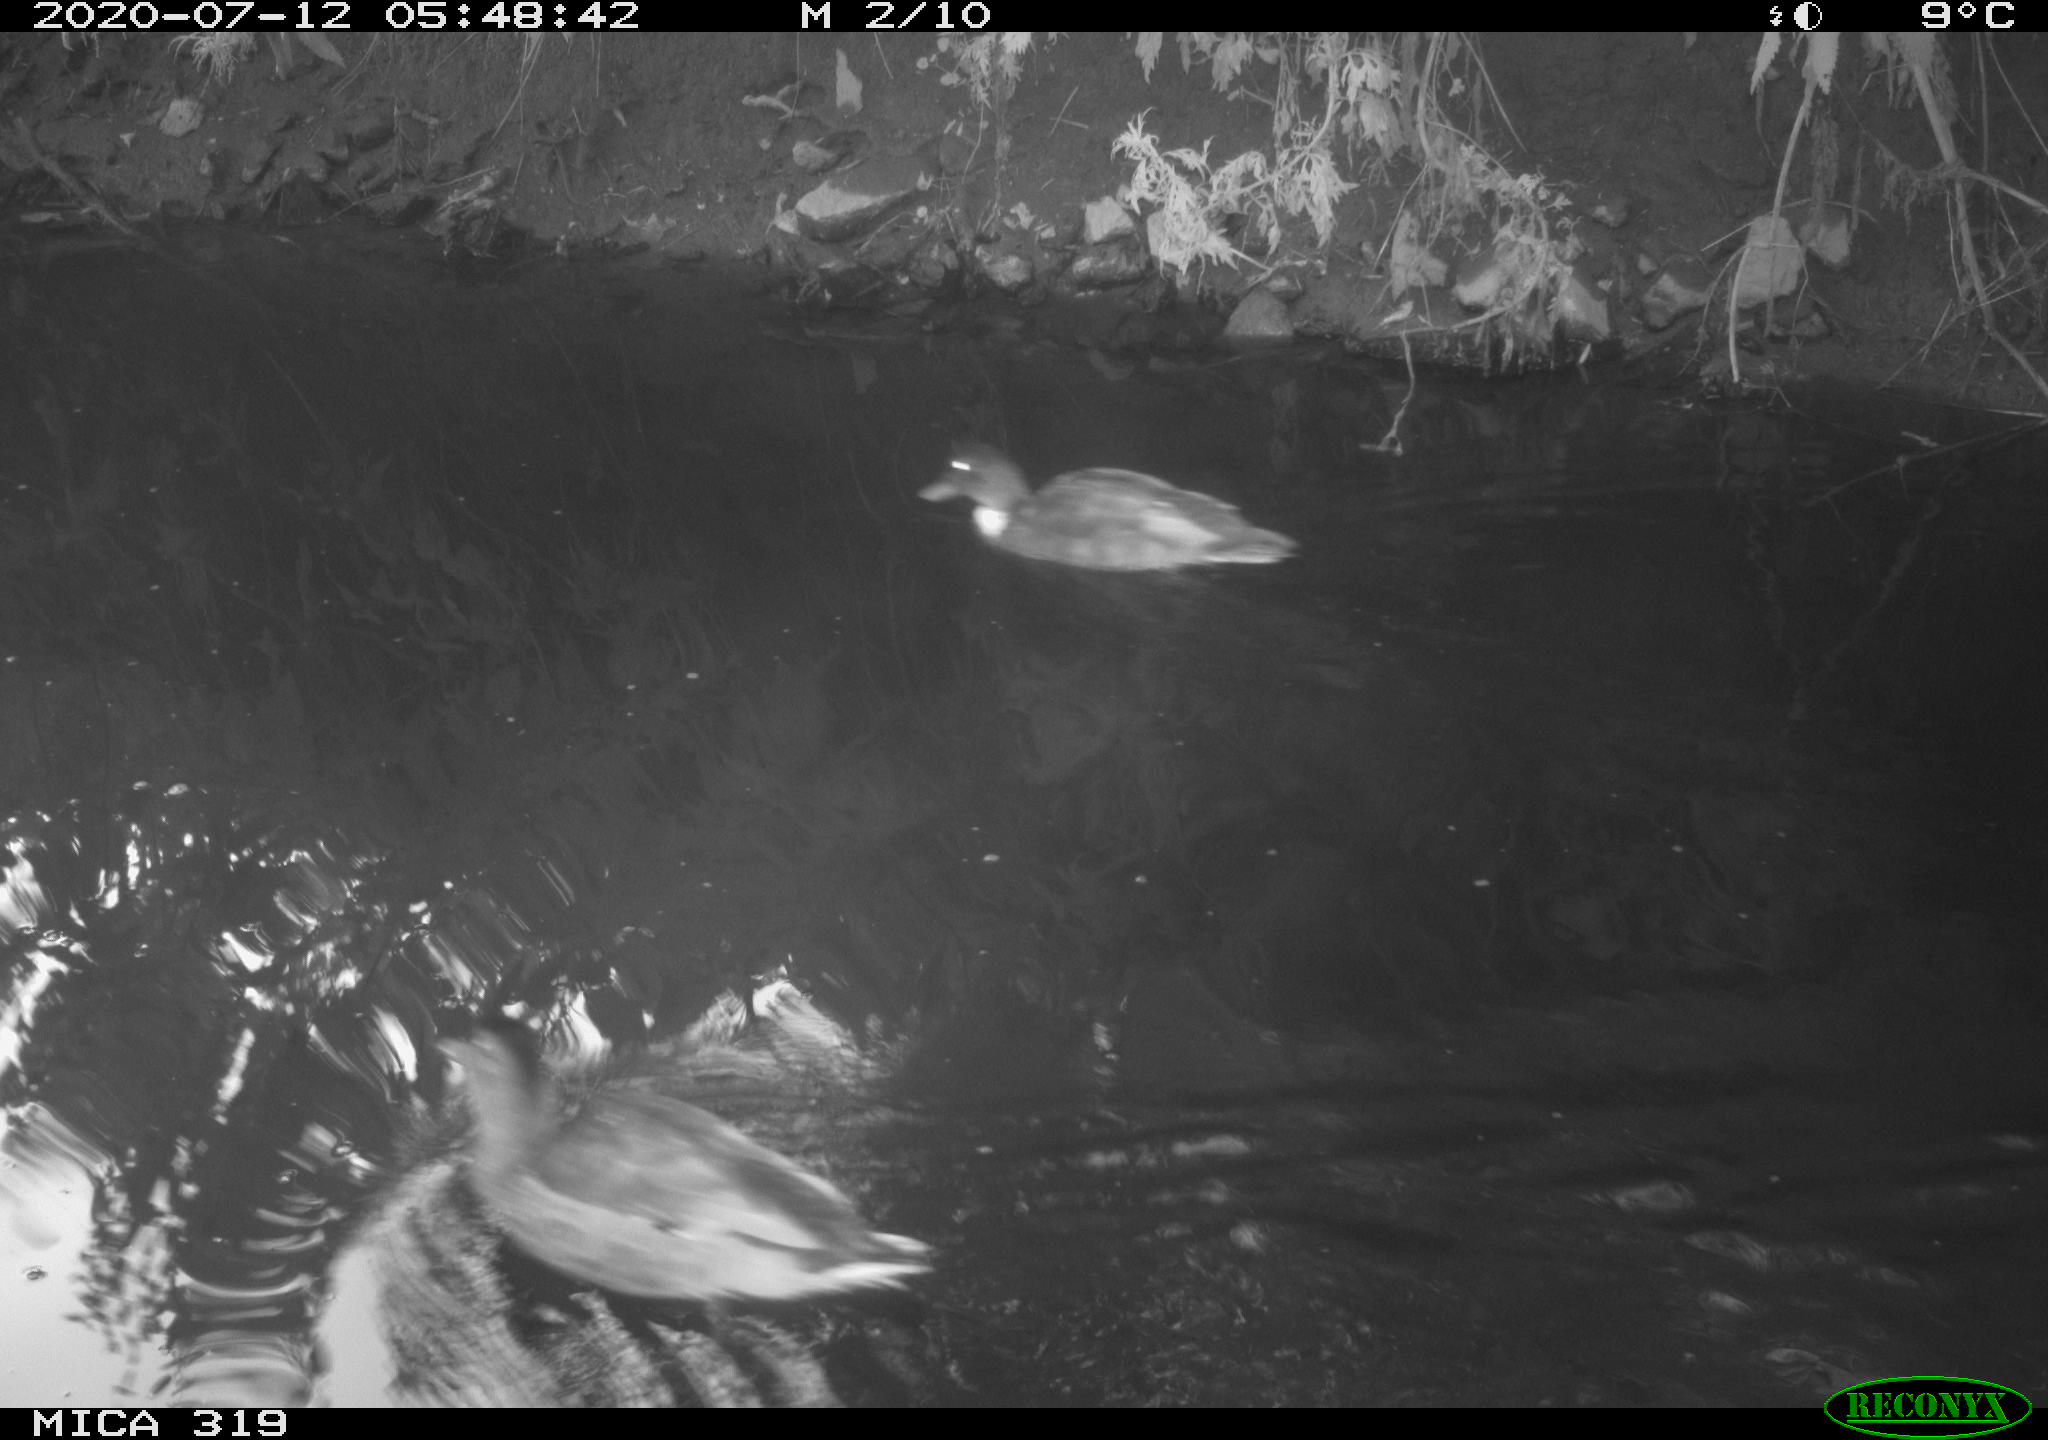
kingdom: Animalia
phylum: Chordata
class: Aves
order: Anseriformes
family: Anatidae
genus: Mareca
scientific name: Mareca strepera
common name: Gadwall
